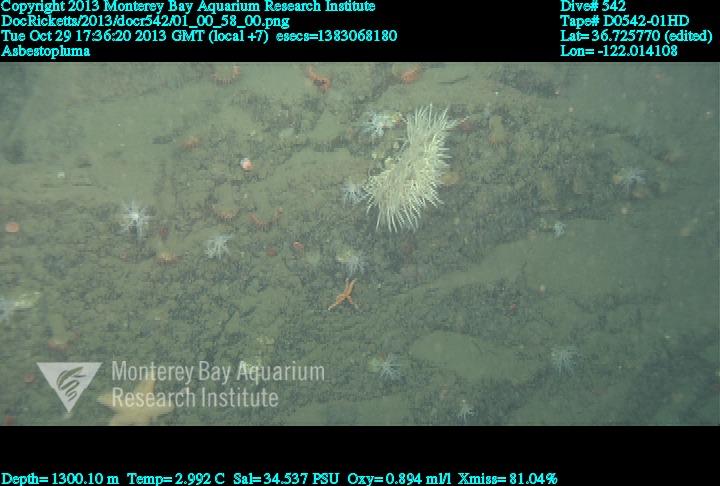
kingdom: Animalia
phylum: Porifera
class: Demospongiae
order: Poecilosclerida
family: Cladorhizidae
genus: Asbestopluma
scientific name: Asbestopluma
